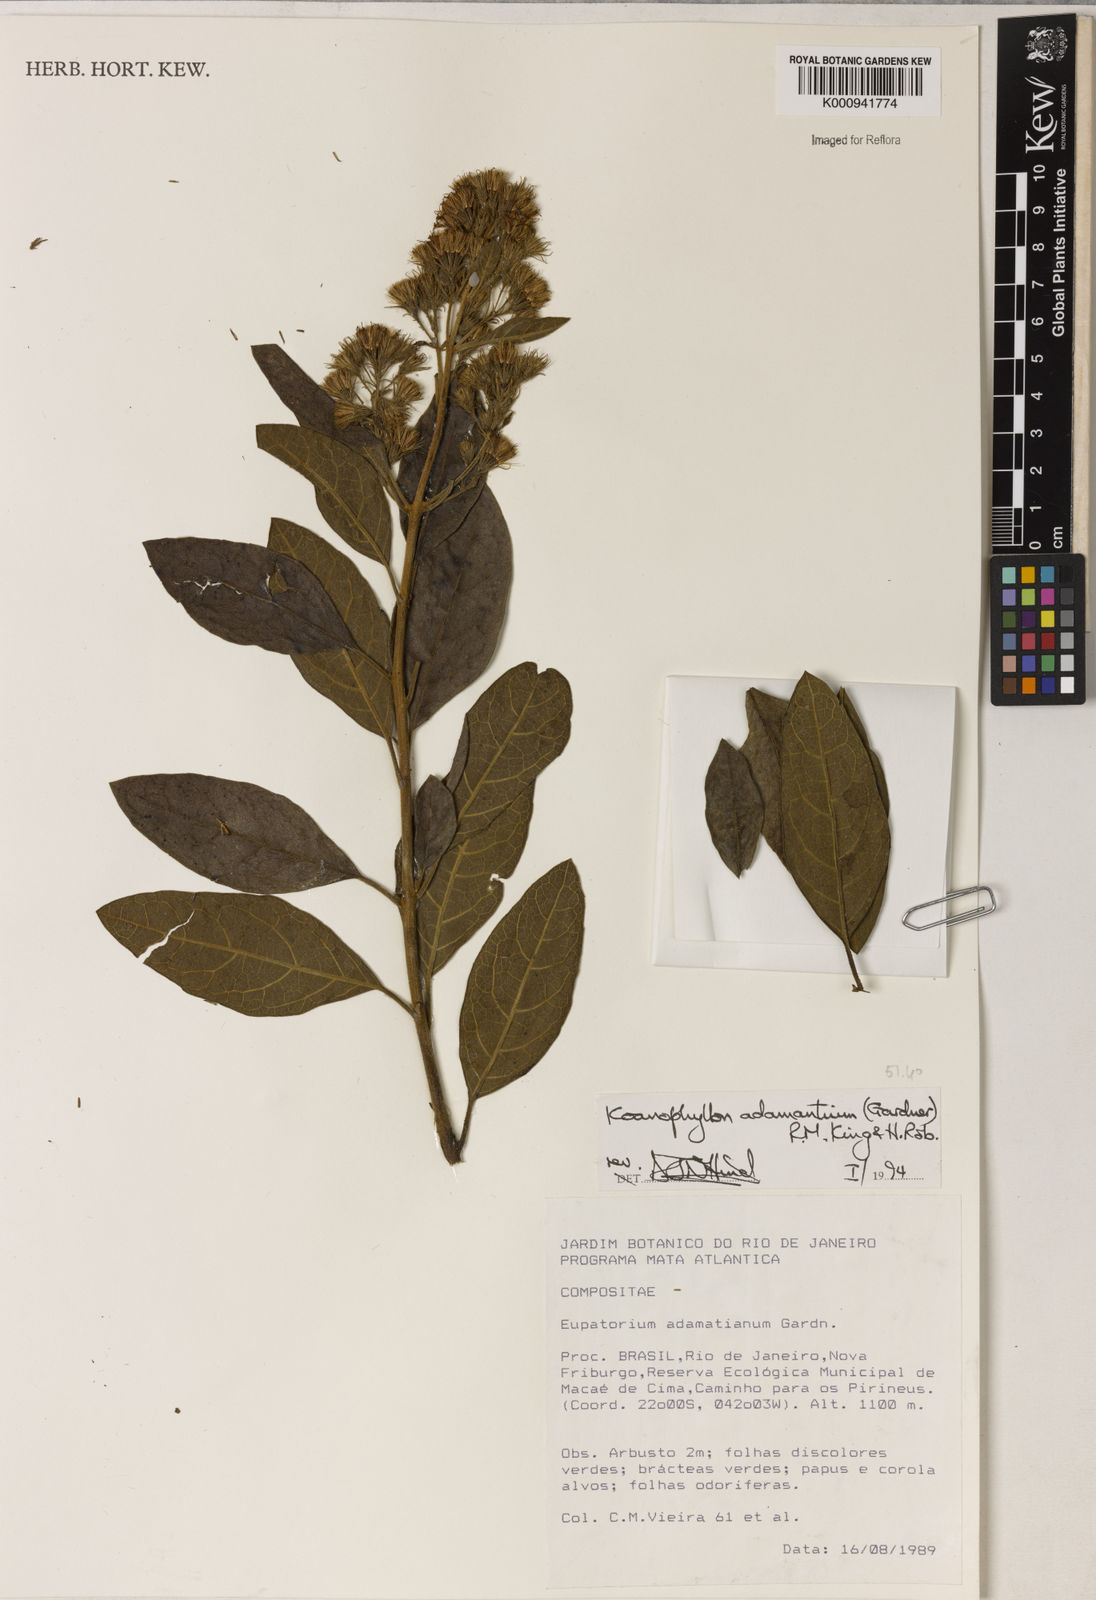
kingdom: Plantae
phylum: Tracheophyta
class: Magnoliopsida
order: Asterales
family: Asteraceae
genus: Koanophyllon
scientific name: Koanophyllon adamantium
